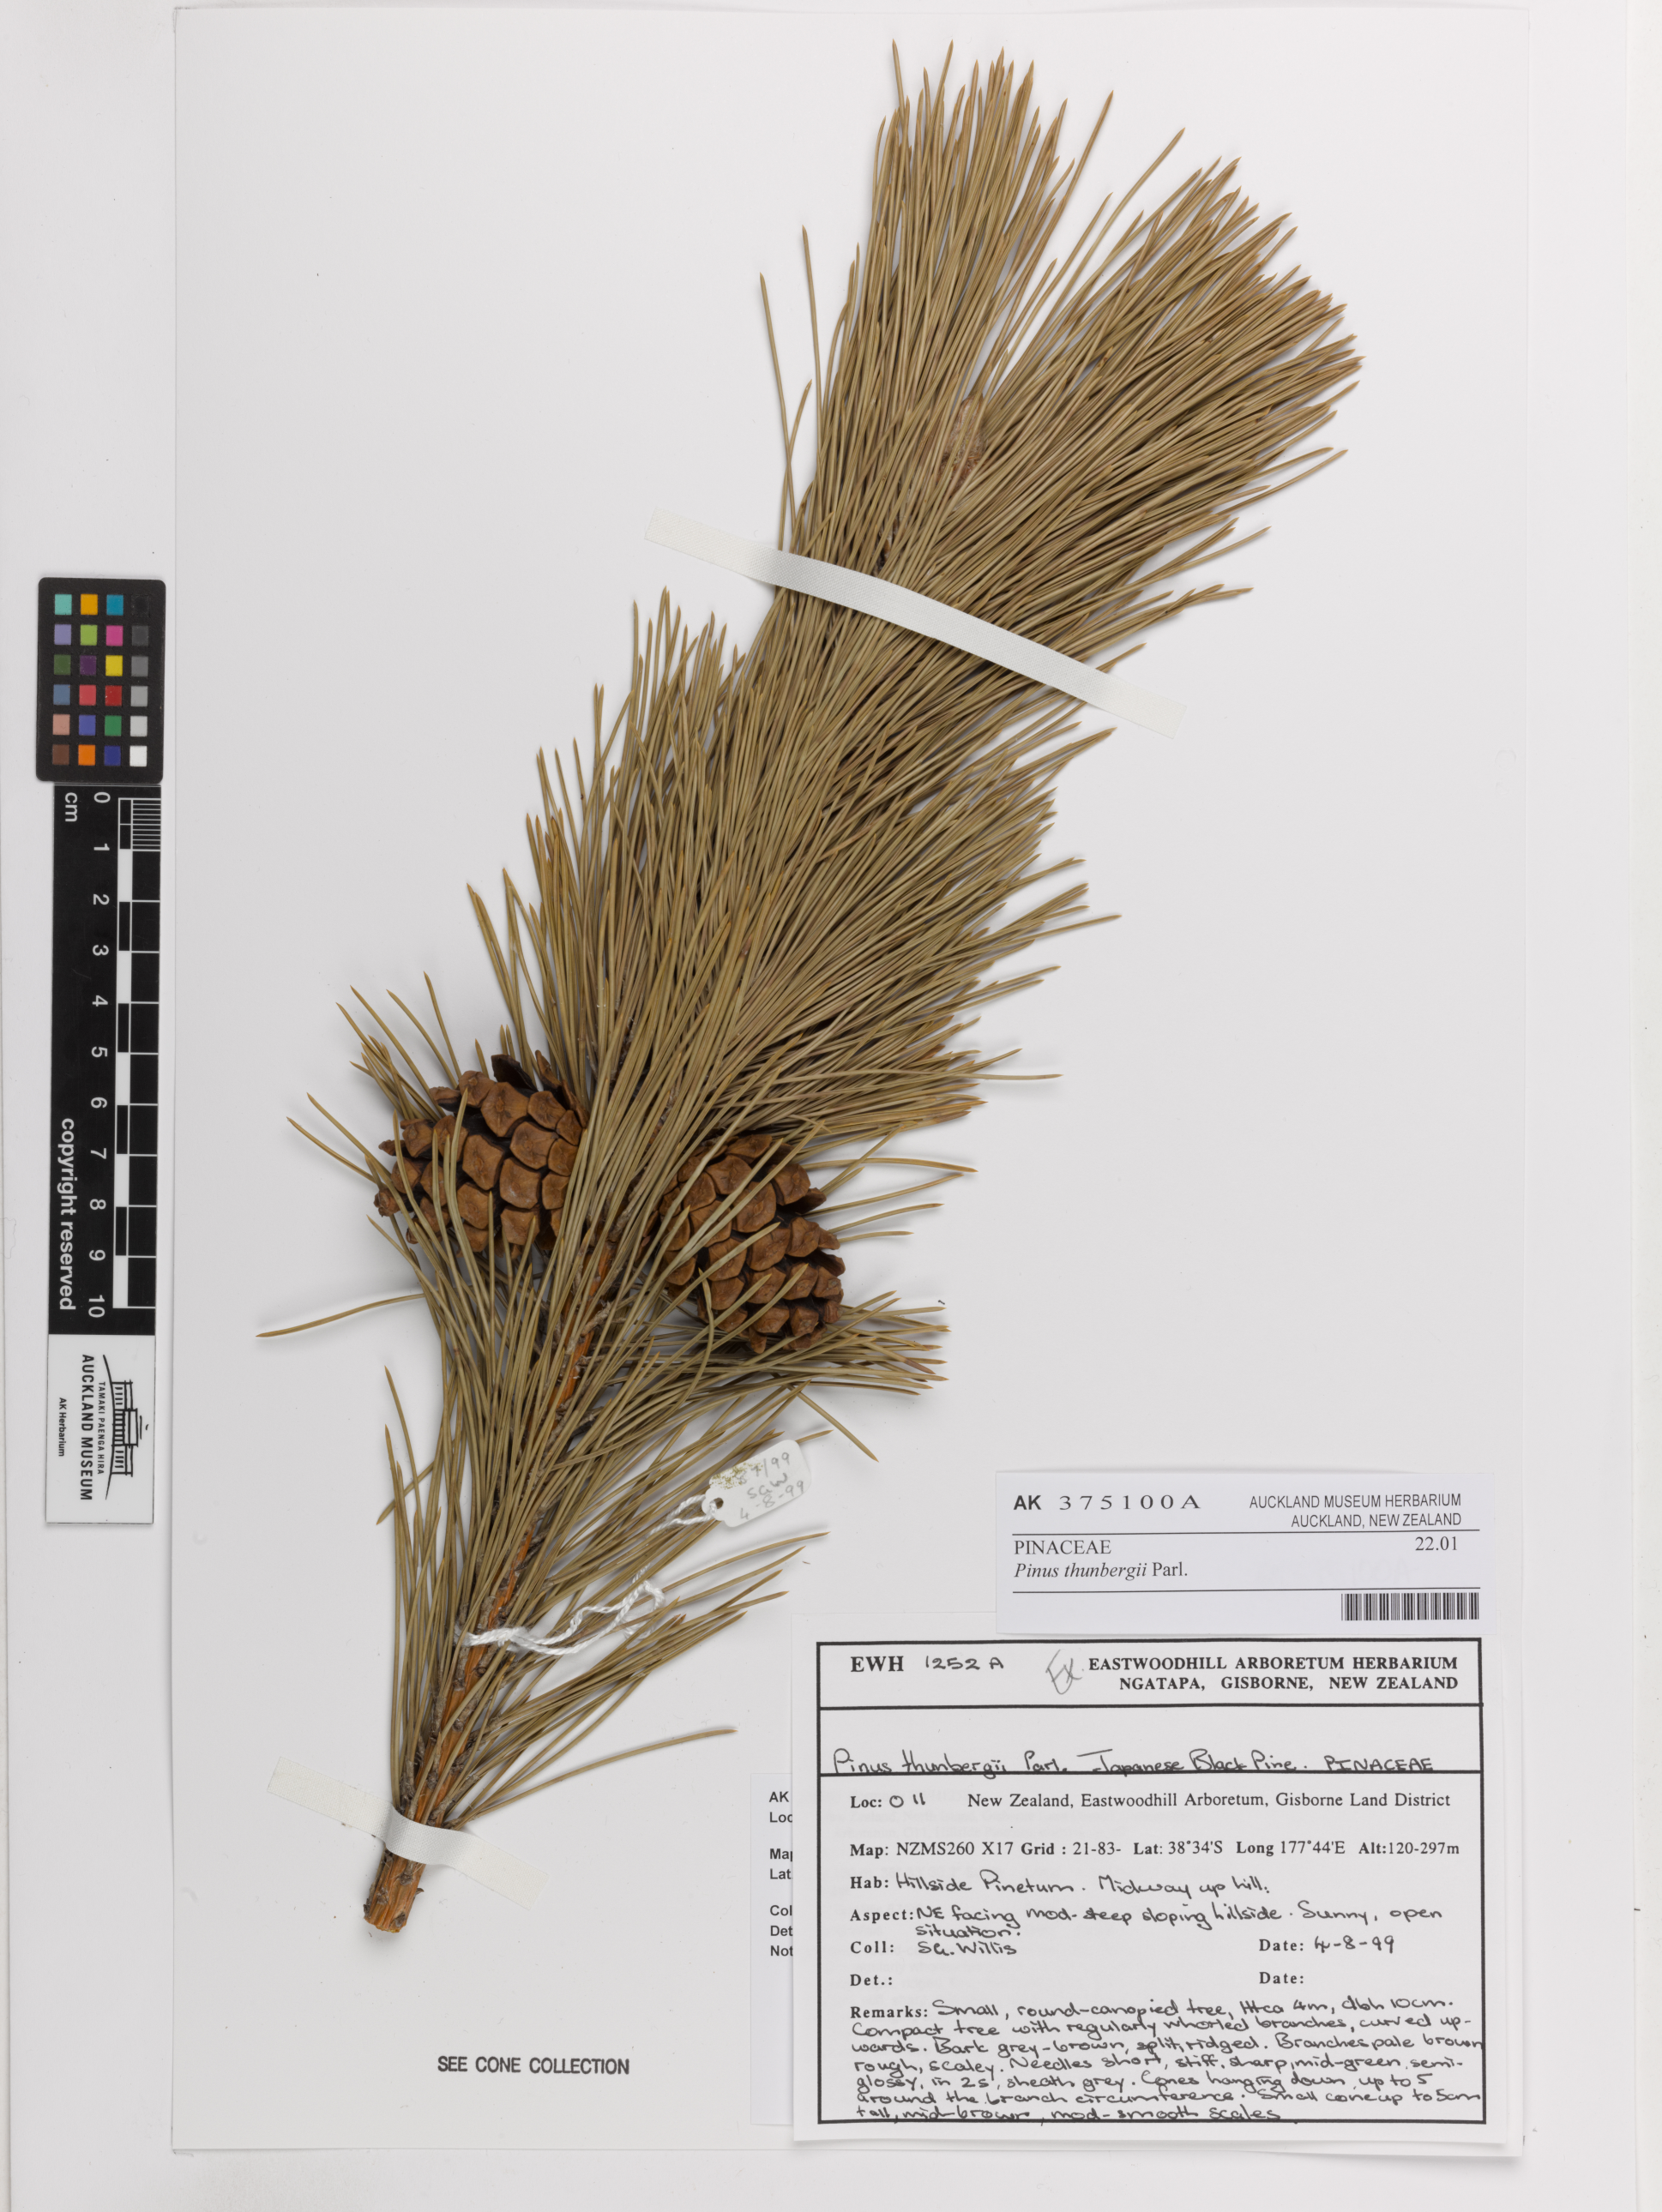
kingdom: Plantae
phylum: Tracheophyta
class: Pinopsida
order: Pinales
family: Pinaceae
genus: Pinus
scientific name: Pinus thunbergii
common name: Japanese black pine
